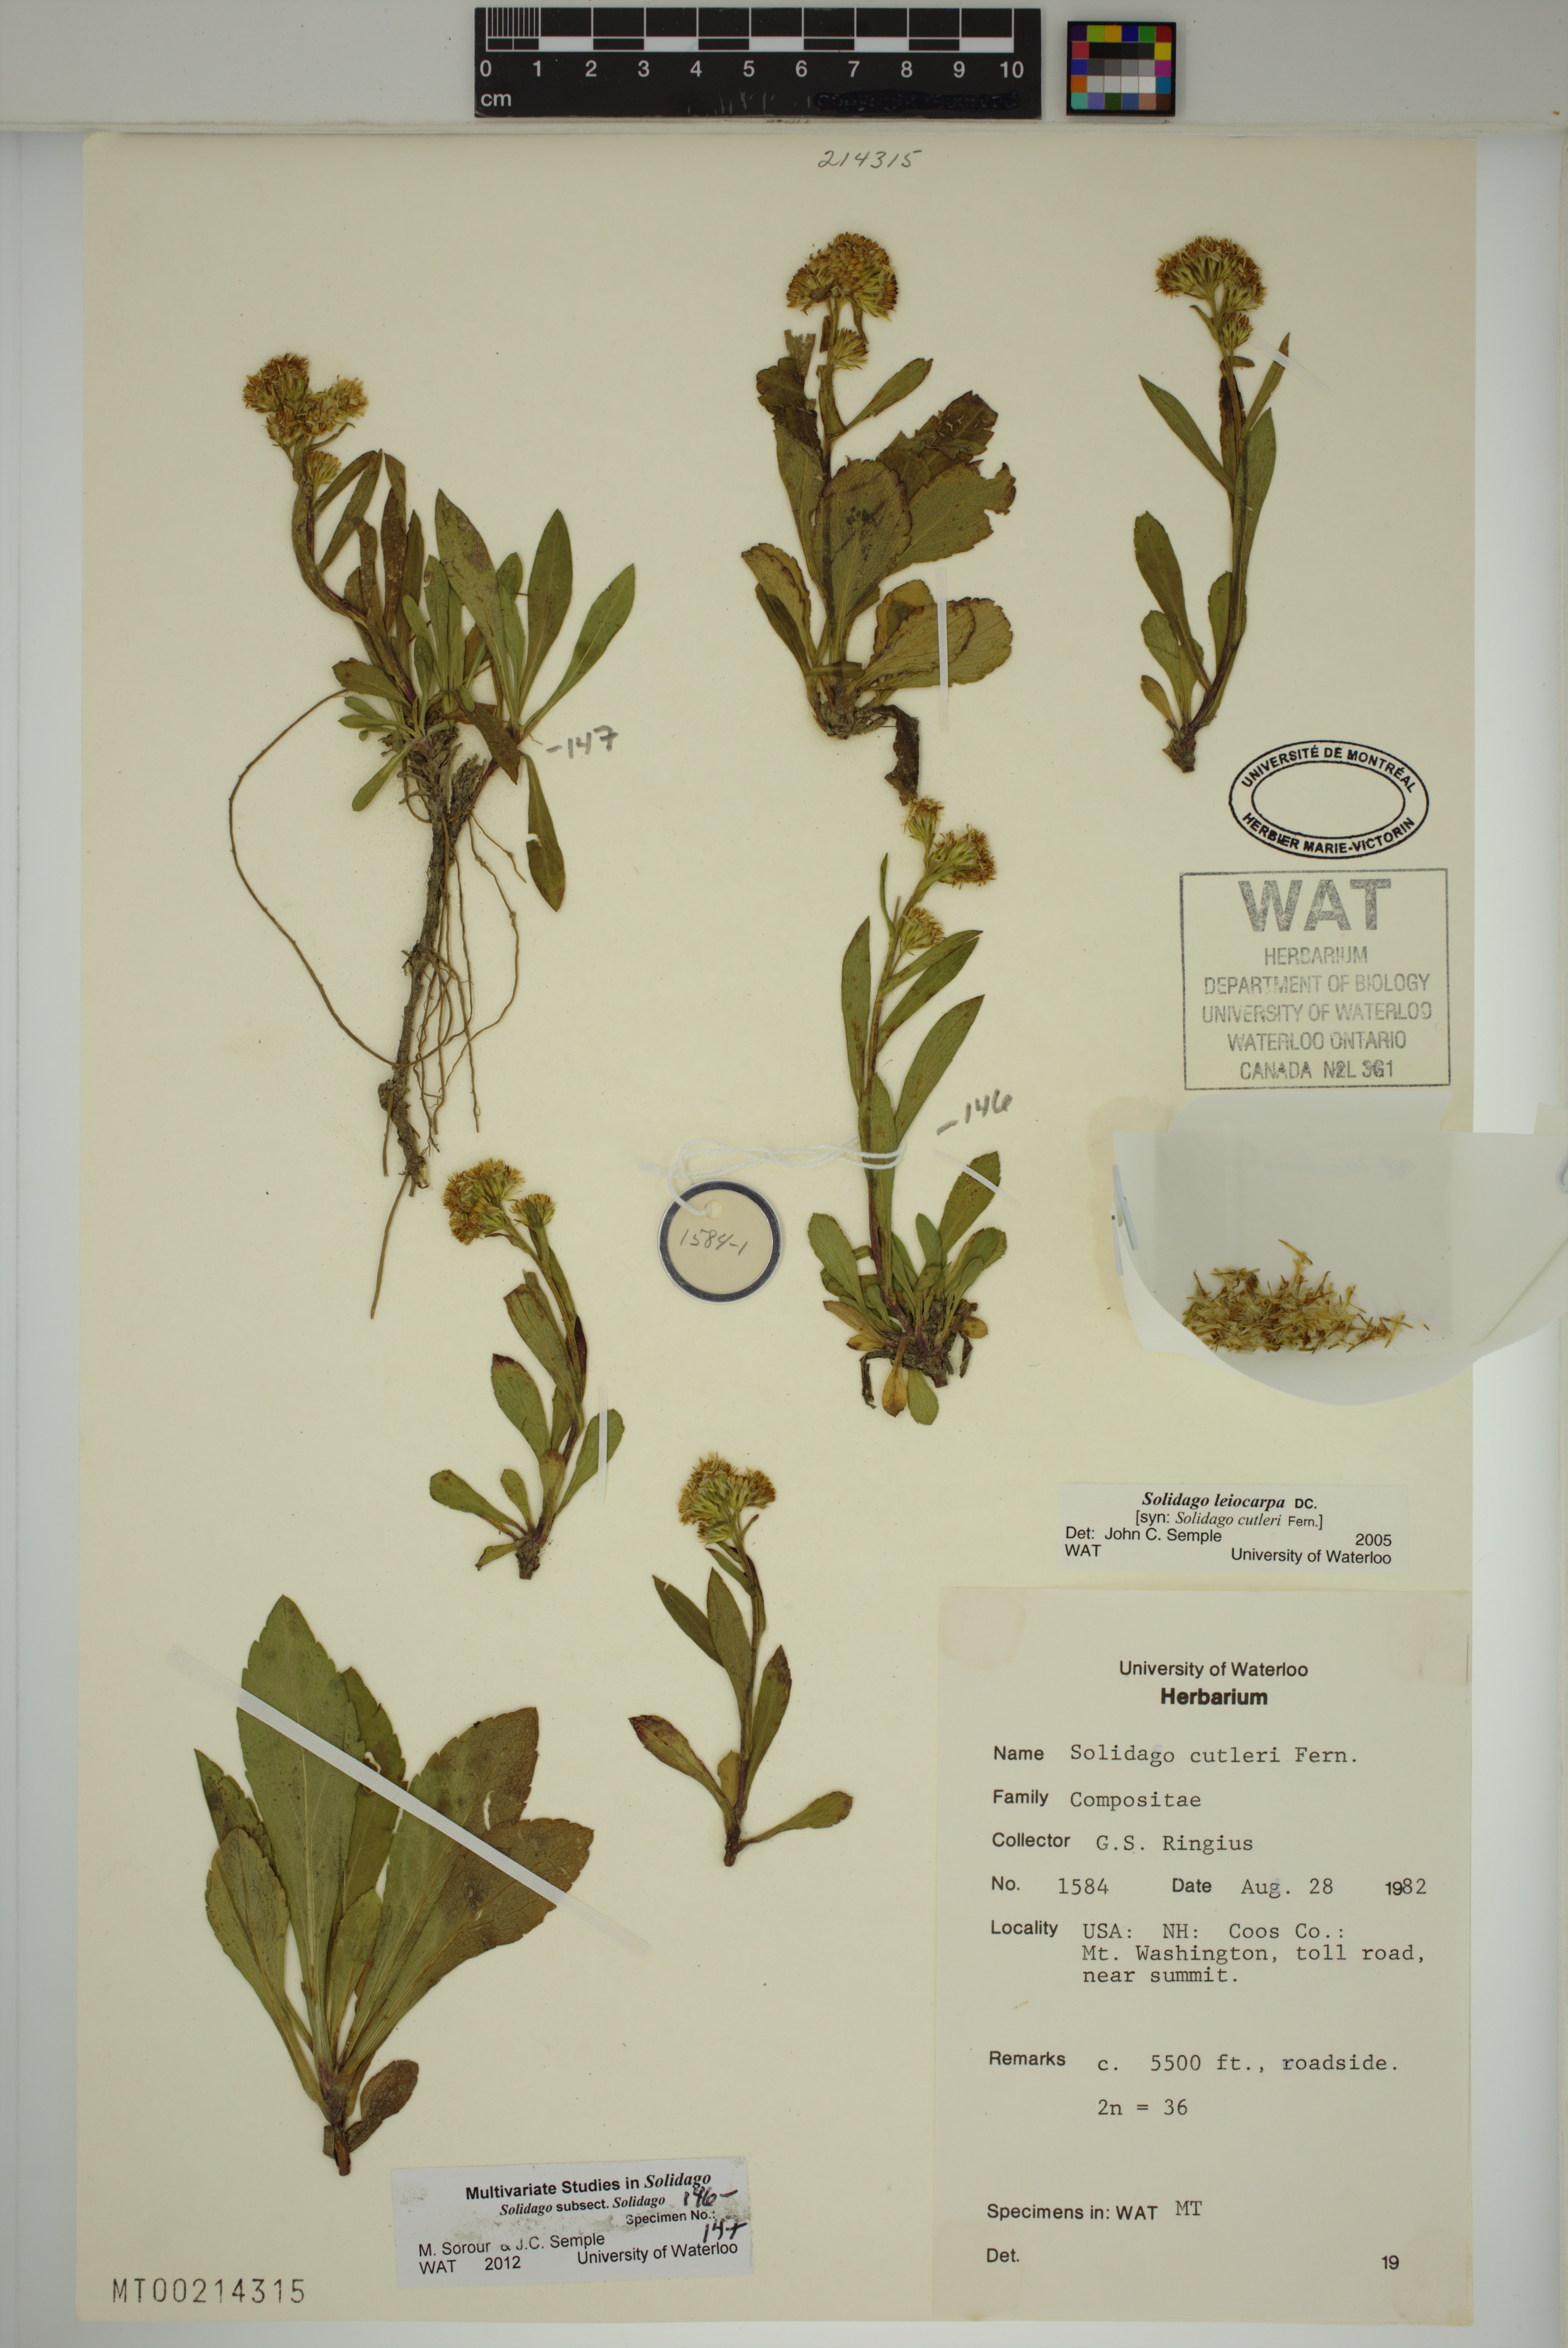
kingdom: Plantae
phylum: Tracheophyta
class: Magnoliopsida
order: Asterales
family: Asteraceae
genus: Solidago
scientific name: Solidago leiocarpa
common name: Cutler's alpine goldenrod
